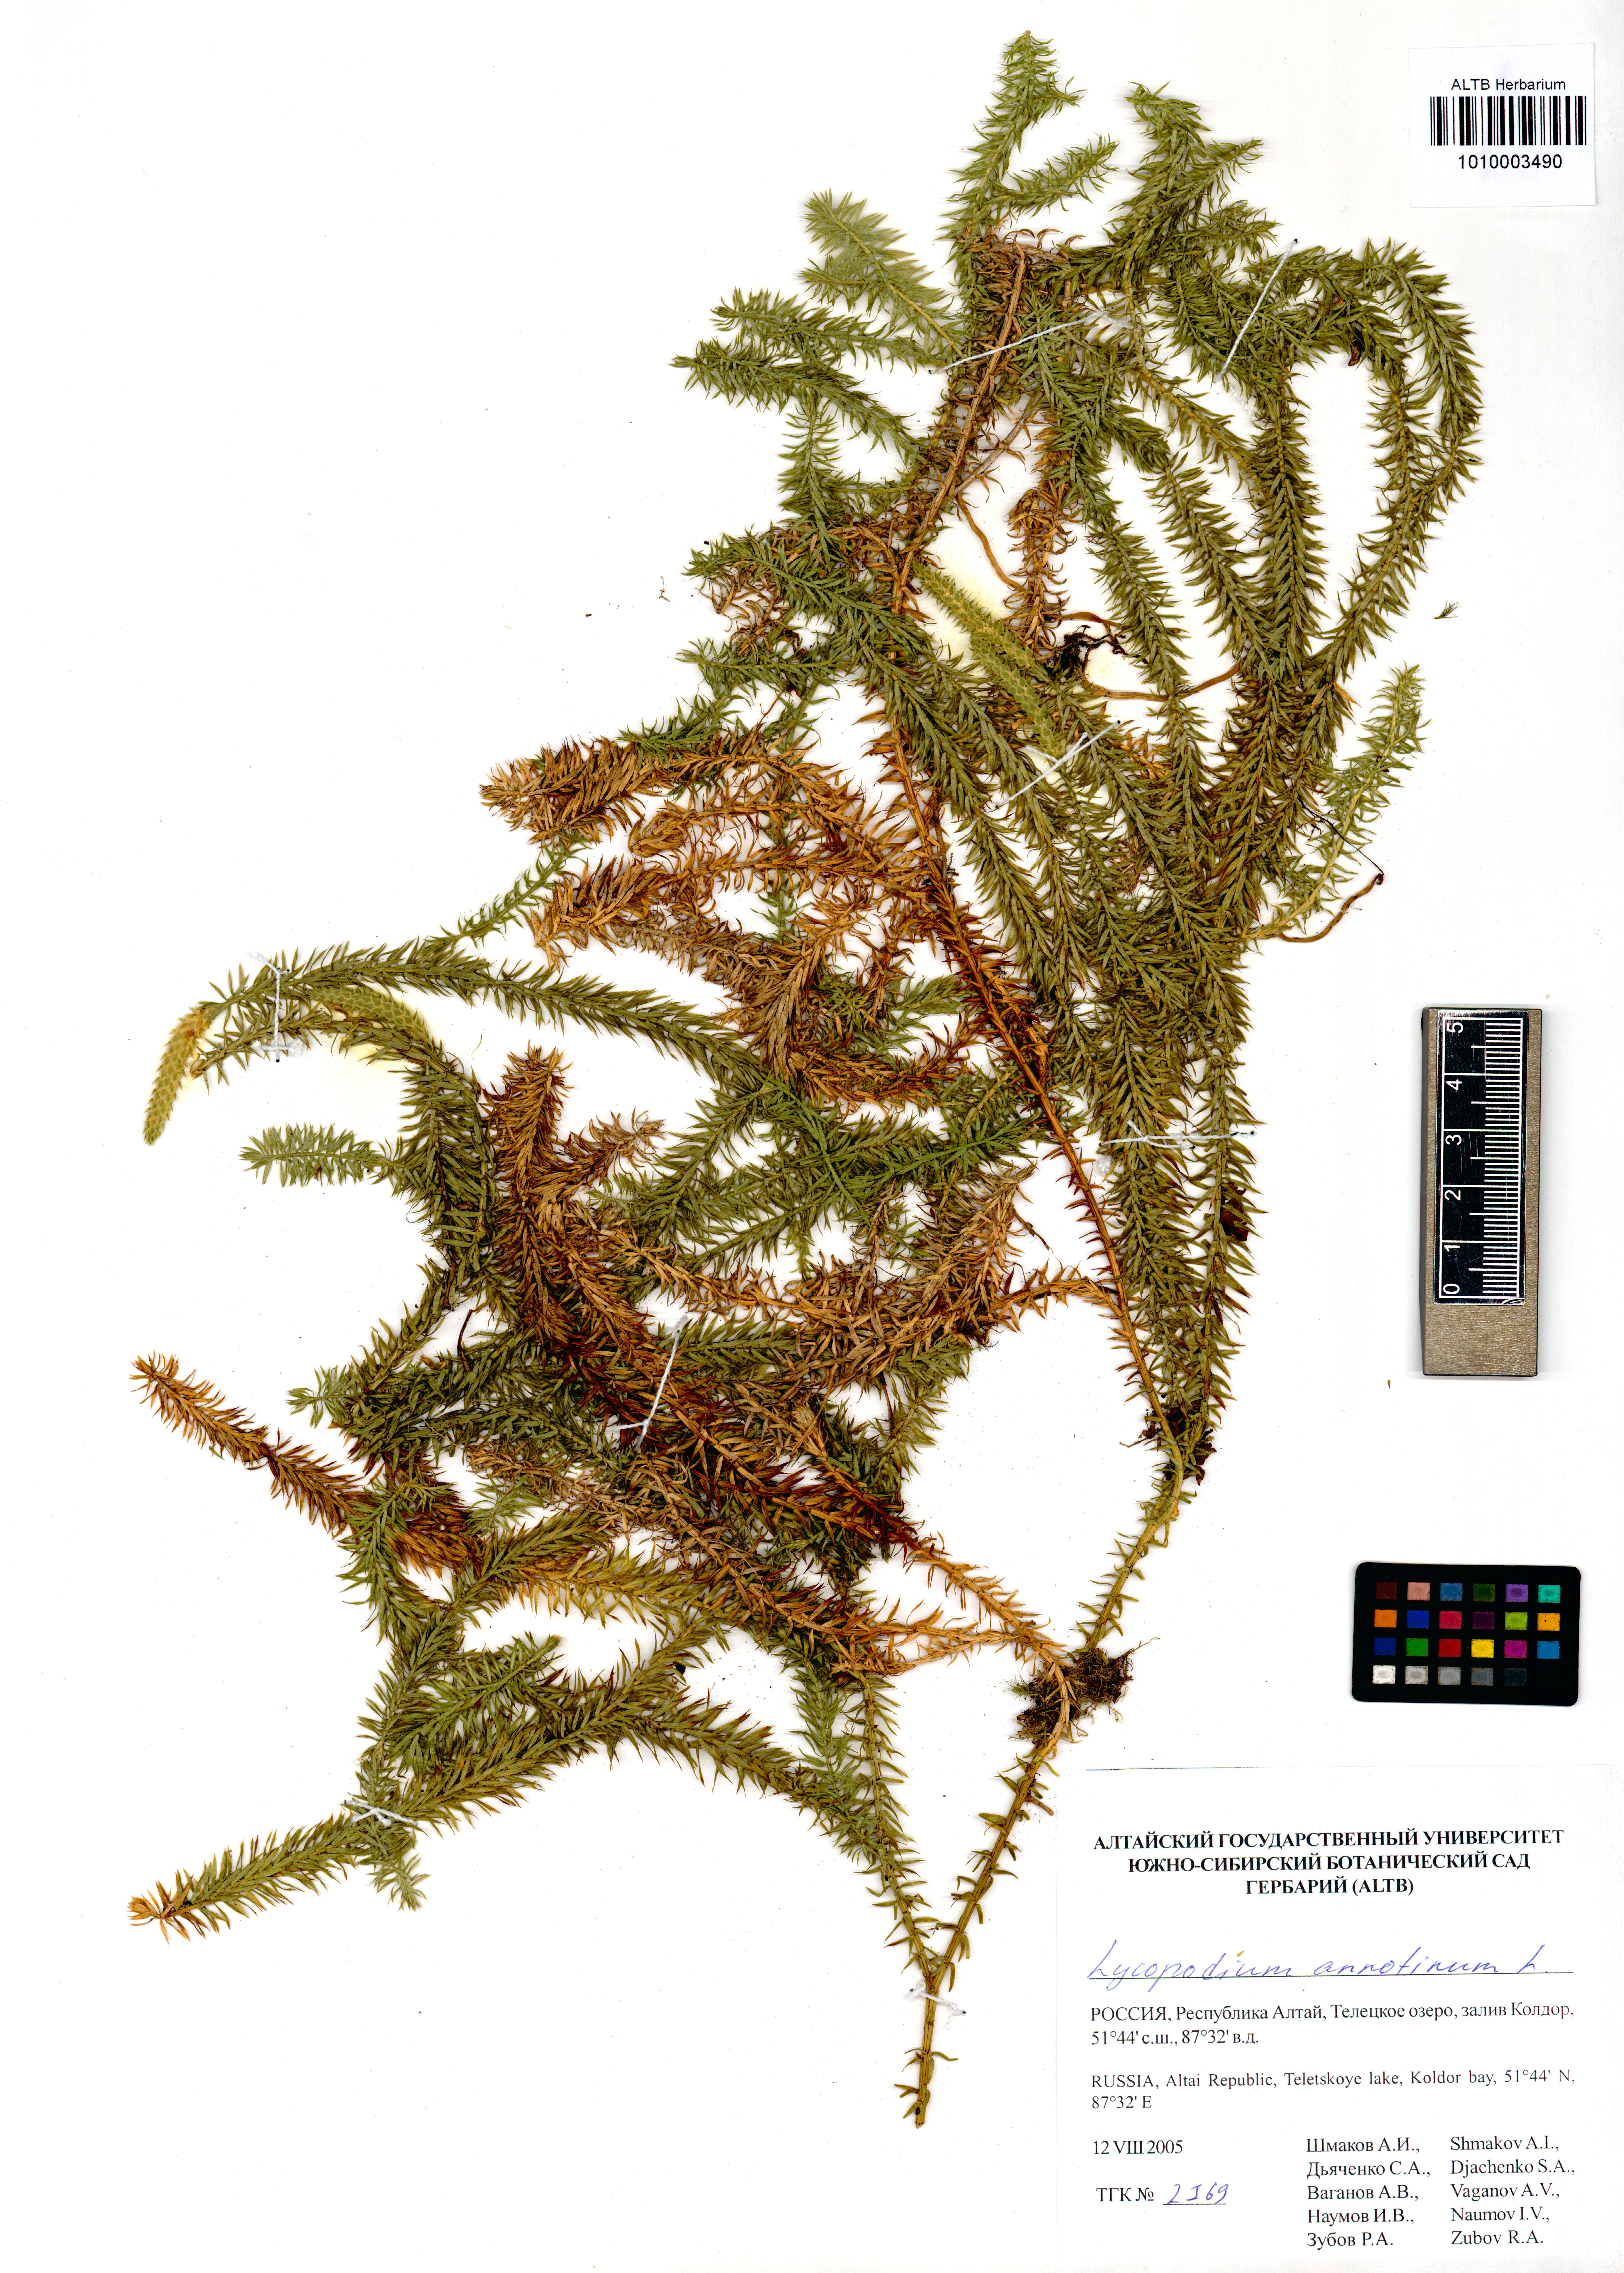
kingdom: Plantae
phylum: Tracheophyta
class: Lycopodiopsida
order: Lycopodiales
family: Lycopodiaceae
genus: Spinulum
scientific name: Spinulum annotinum
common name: Interrupted club-moss
